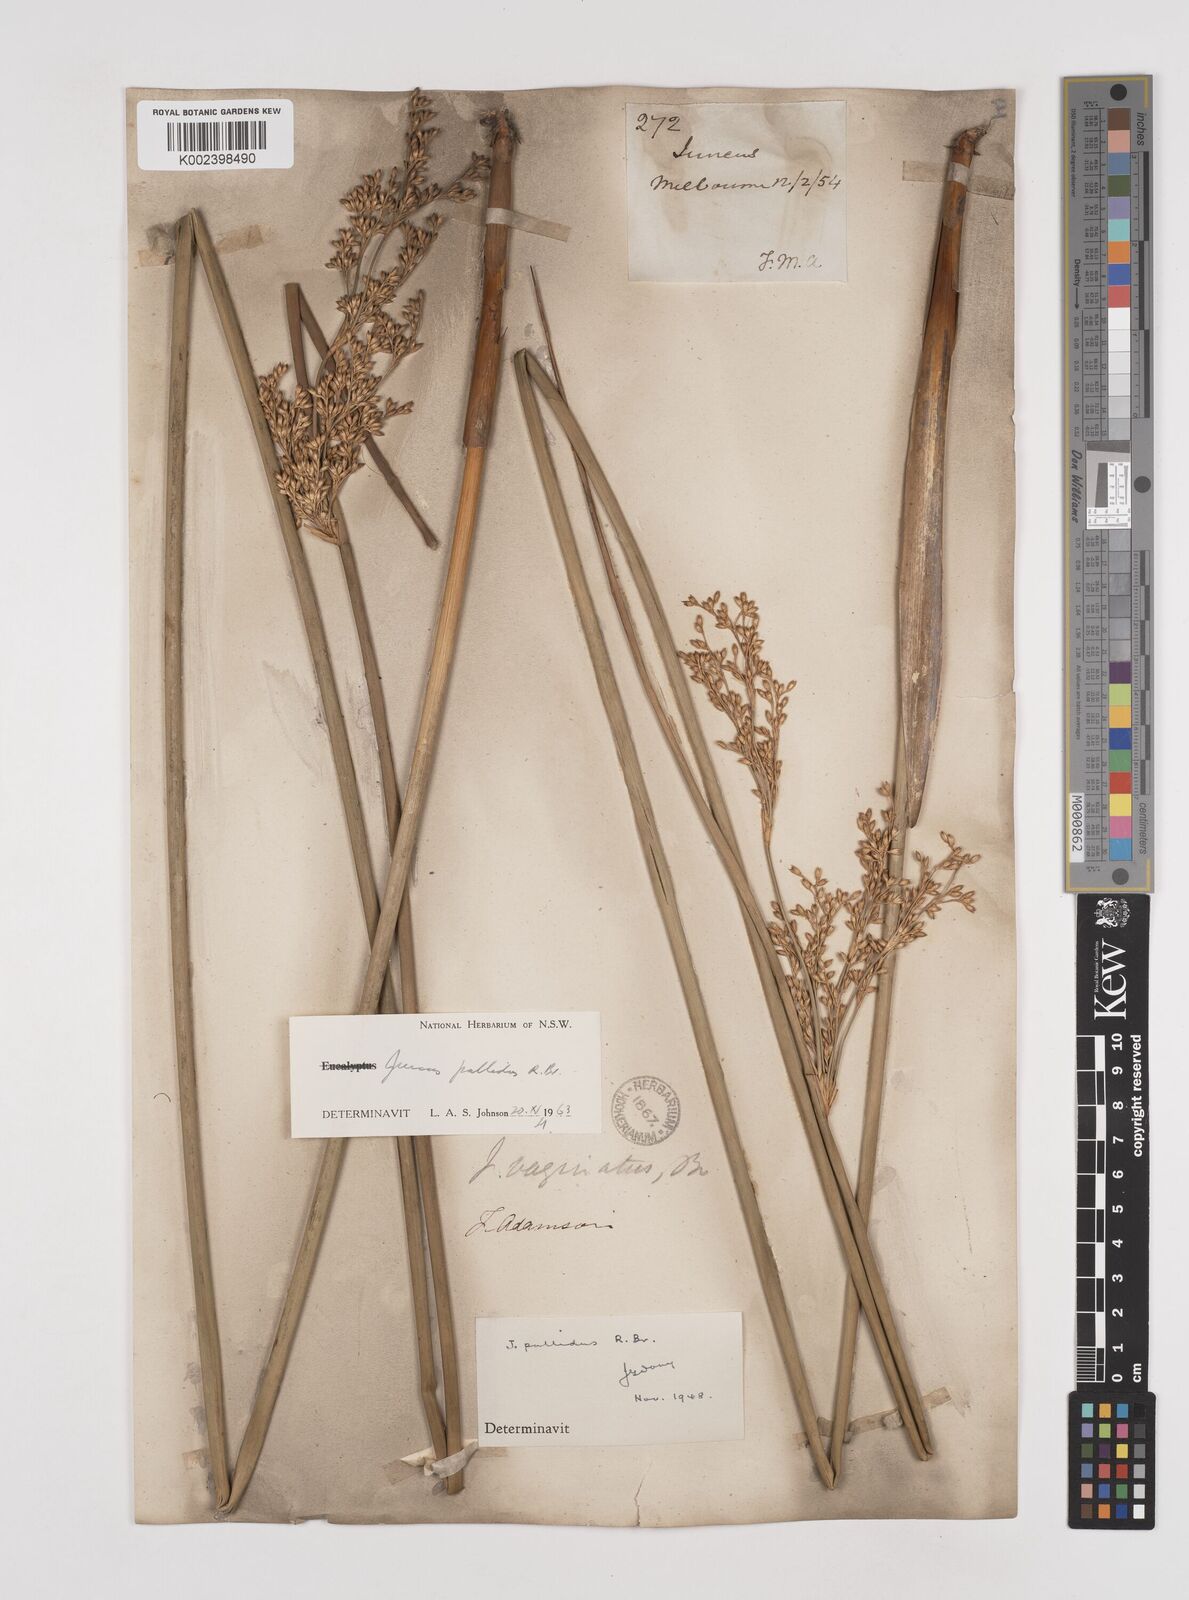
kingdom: Plantae
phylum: Tracheophyta
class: Liliopsida
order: Poales
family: Juncaceae
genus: Juncus
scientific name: Juncus pallidus
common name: Great soft-rush
